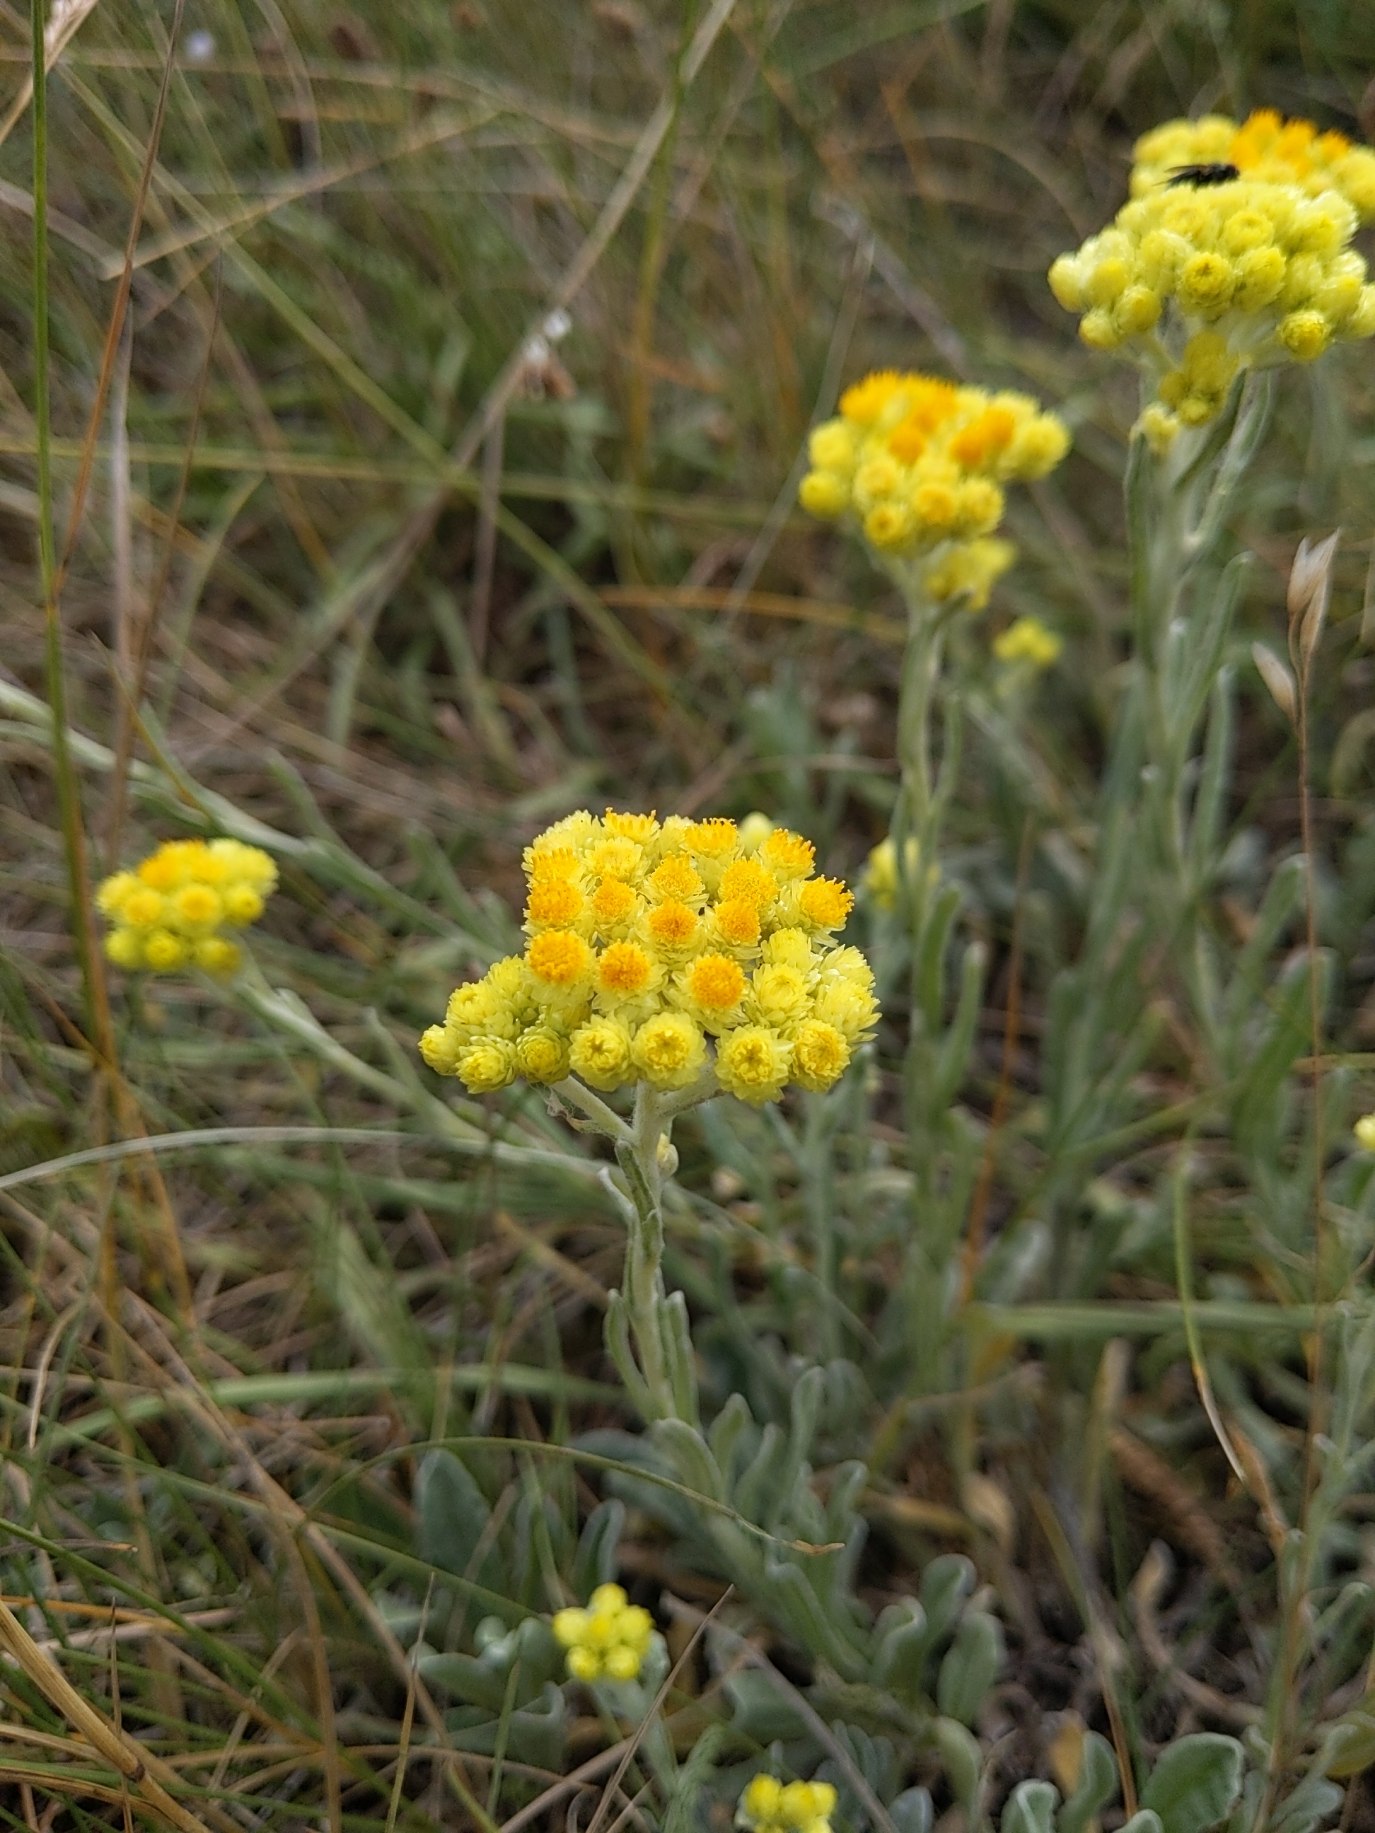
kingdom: Plantae
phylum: Tracheophyta
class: Magnoliopsida
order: Asterales
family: Asteraceae
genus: Helichrysum
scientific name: Helichrysum arenarium
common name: Gul evighedsblomst
